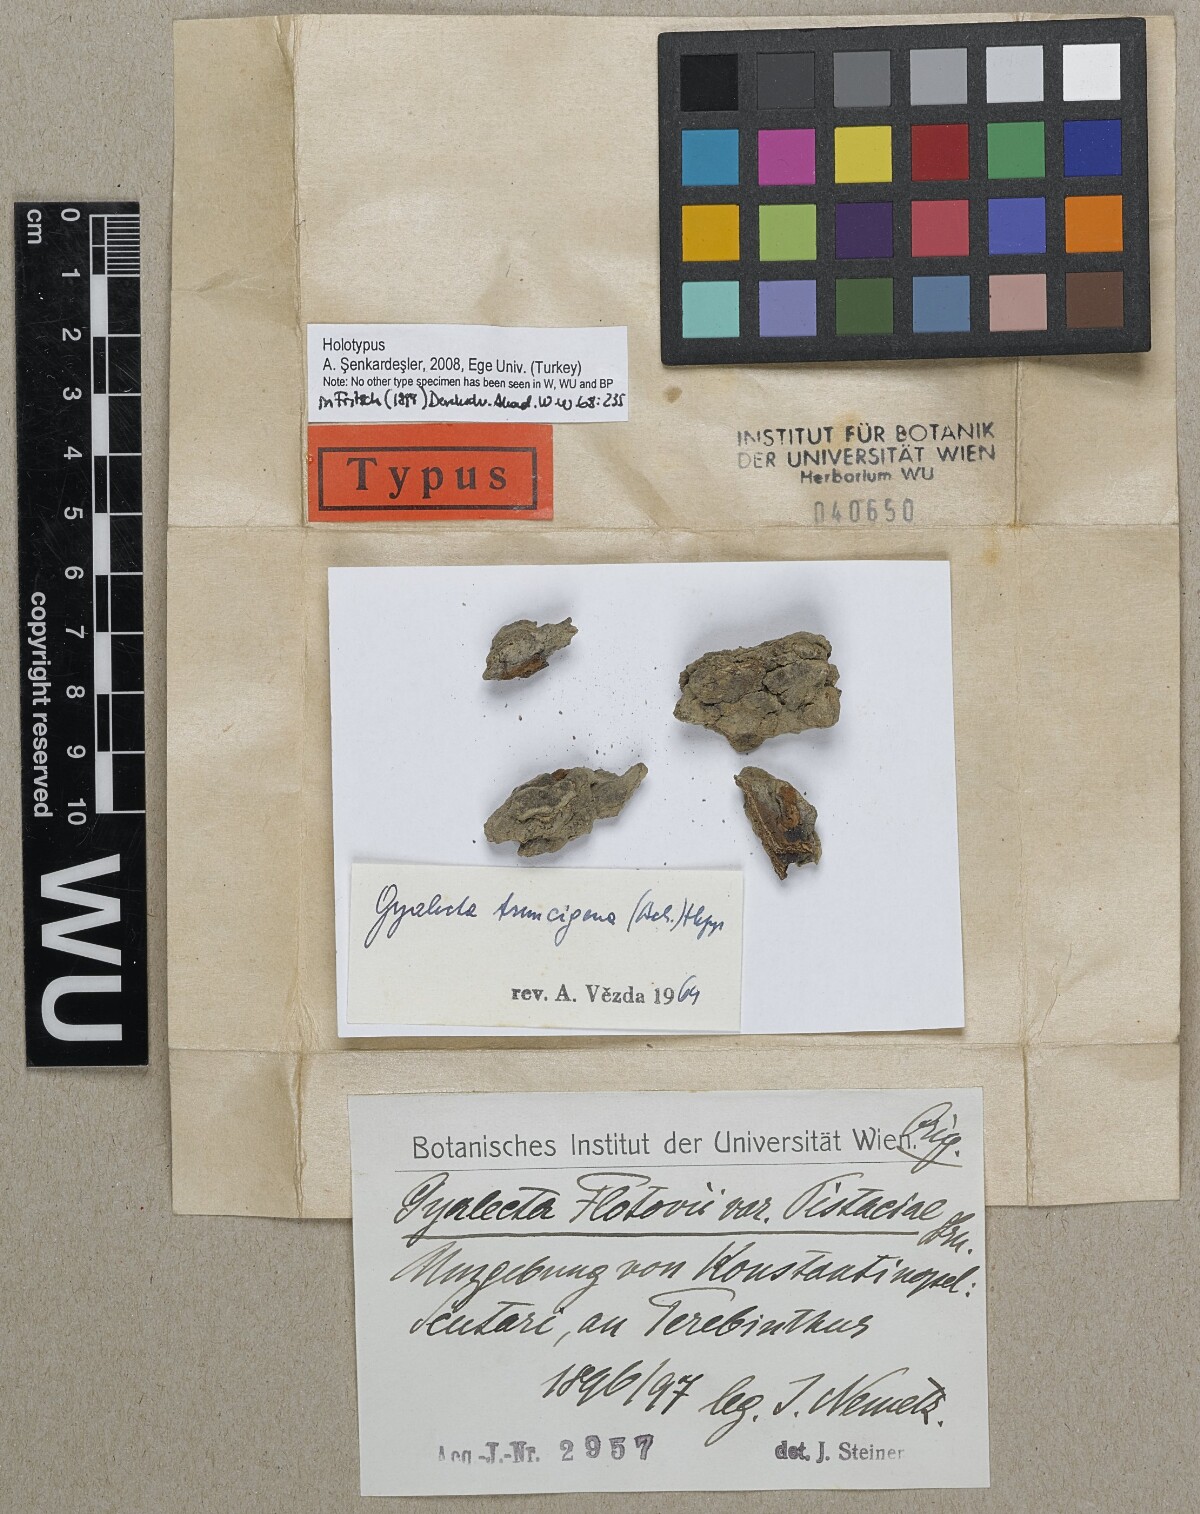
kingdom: Fungi
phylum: Ascomycota
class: Lecanoromycetes
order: Gyalectales
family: Gyalectaceae
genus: Gyalecta
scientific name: Gyalecta flotovii
